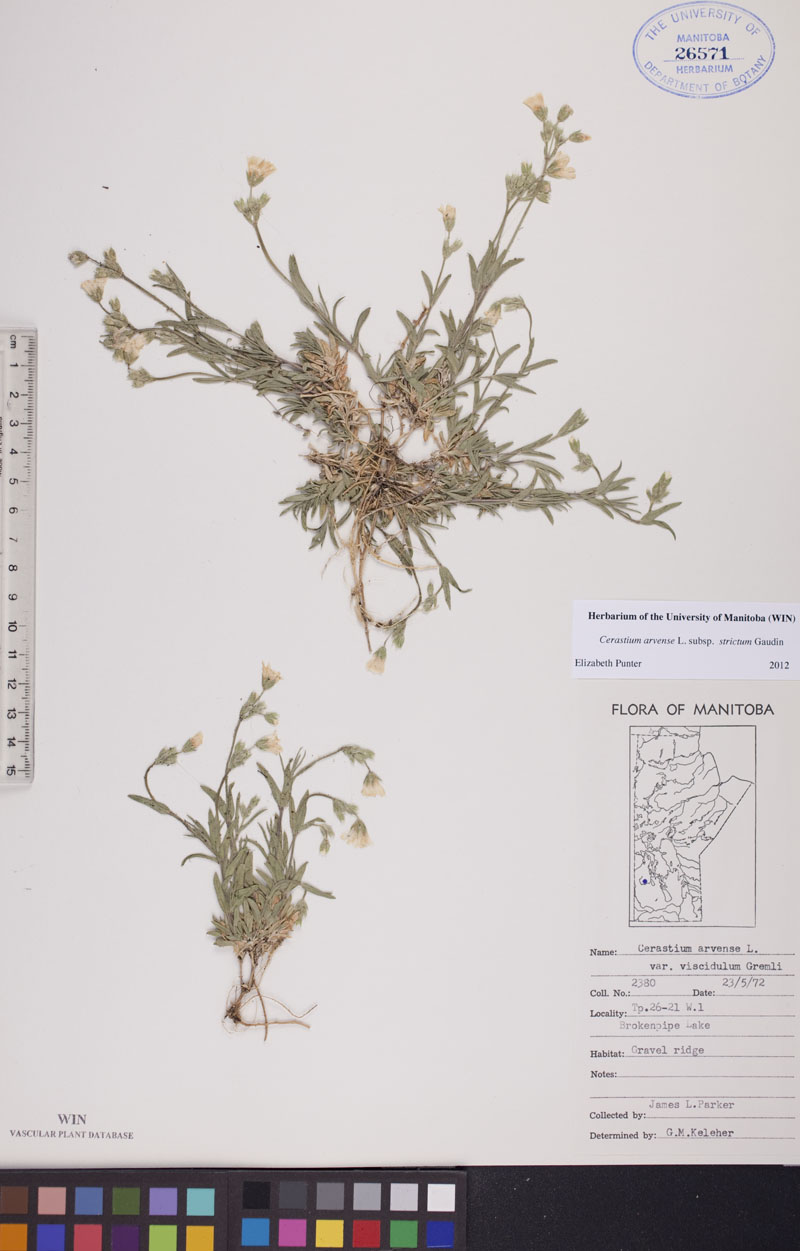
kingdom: Plantae
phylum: Tracheophyta
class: Magnoliopsida
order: Caryophyllales
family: Caryophyllaceae
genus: Cerastium
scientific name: Cerastium elongatum
